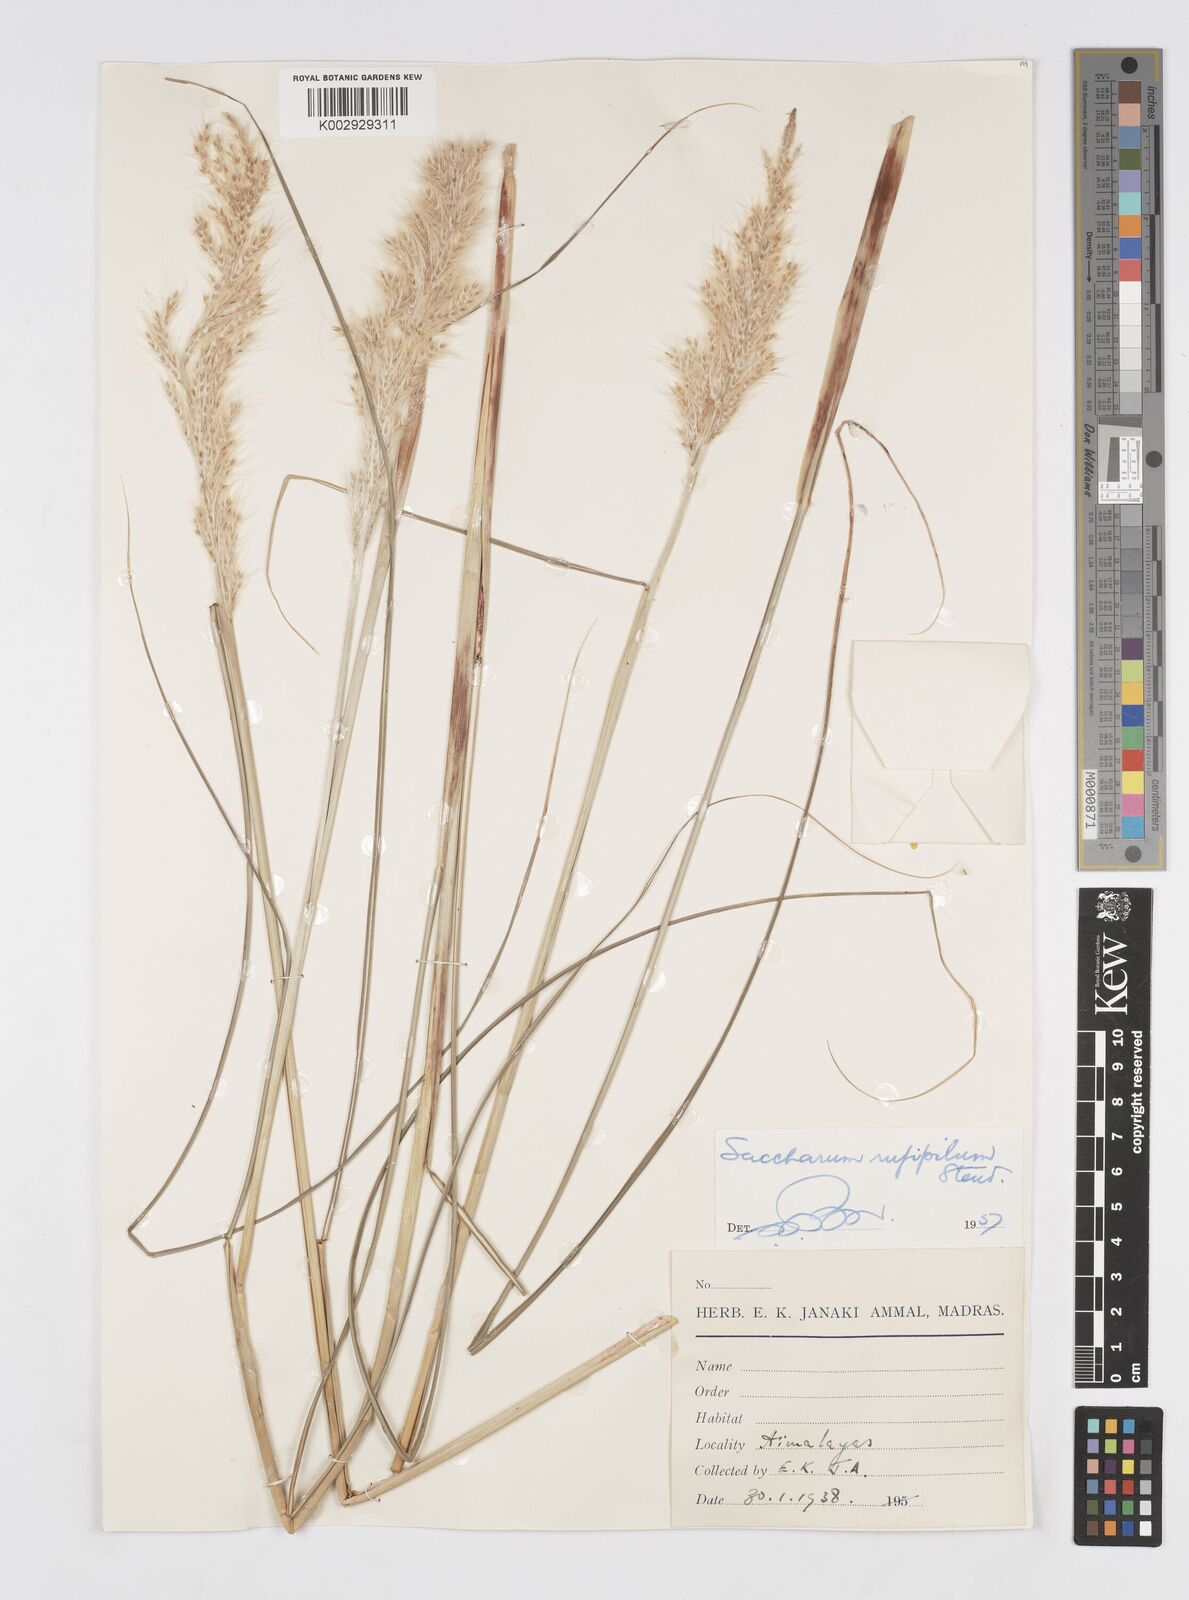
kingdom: Plantae
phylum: Tracheophyta
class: Liliopsida
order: Poales
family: Poaceae
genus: Tripidium
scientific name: Tripidium rufipilum
